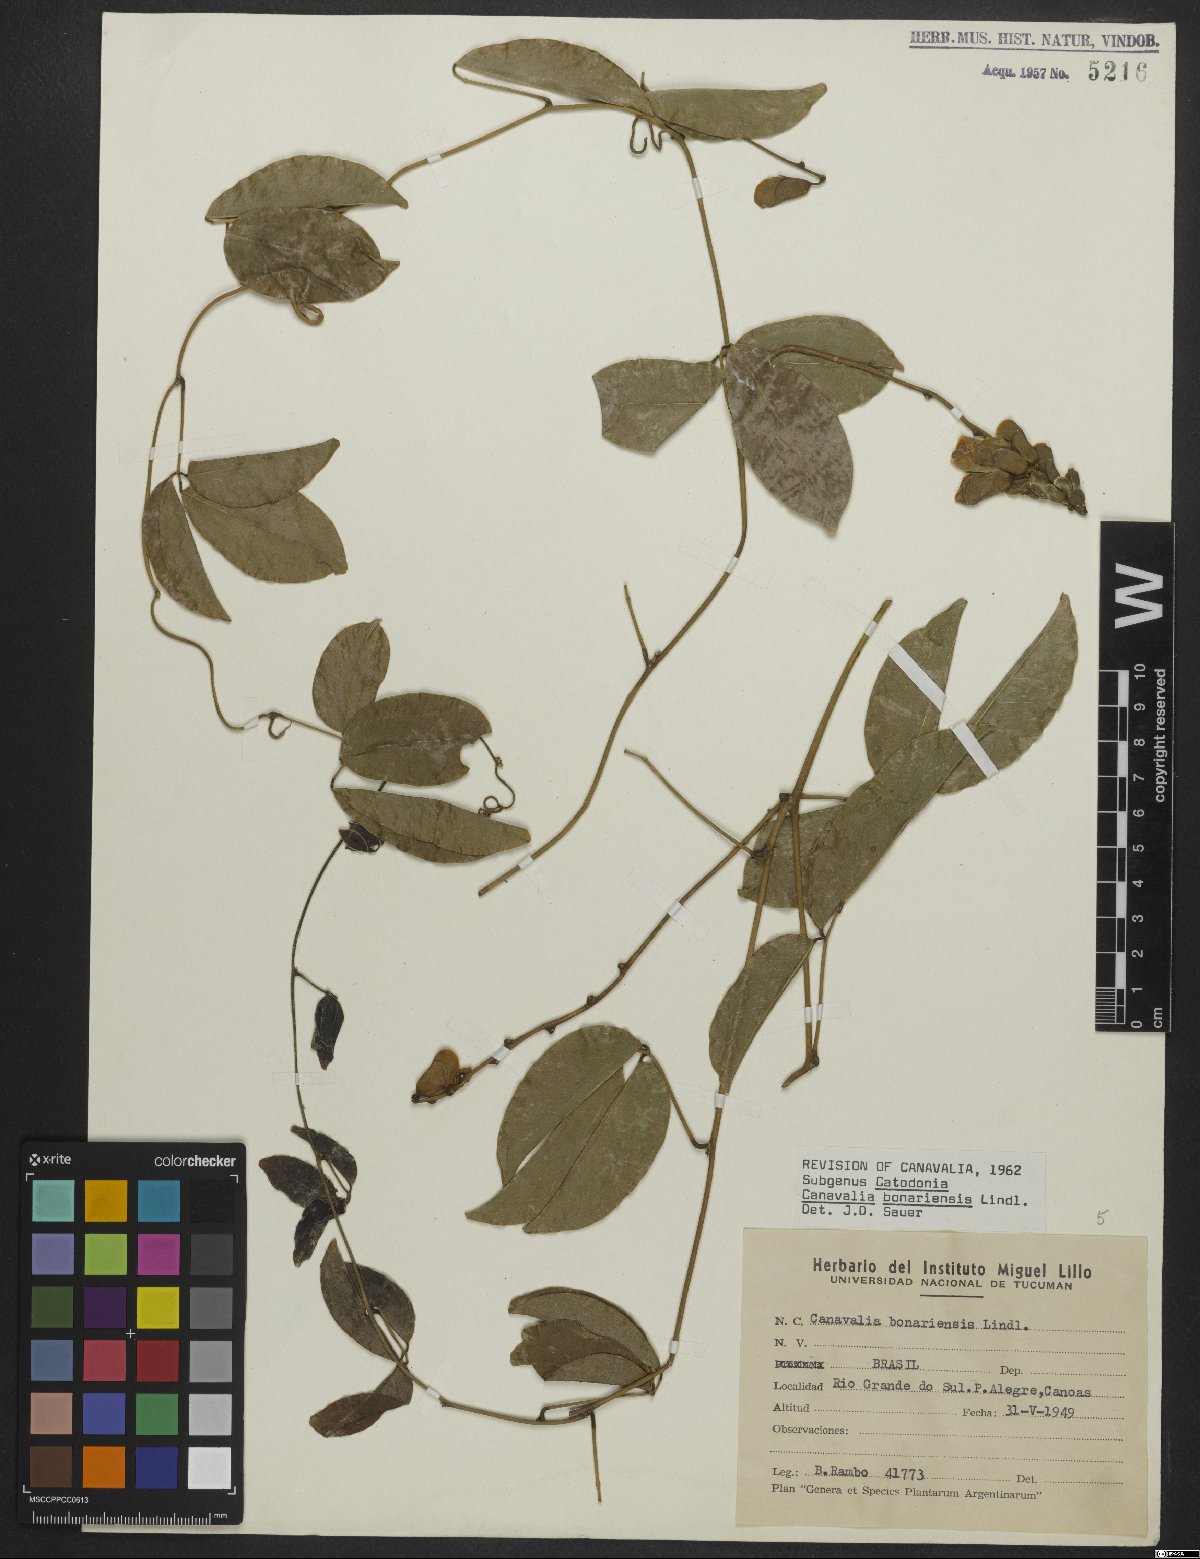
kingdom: Plantae
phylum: Tracheophyta
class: Magnoliopsida
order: Fabales
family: Fabaceae
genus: Canavalia
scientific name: Canavalia bonariensis
